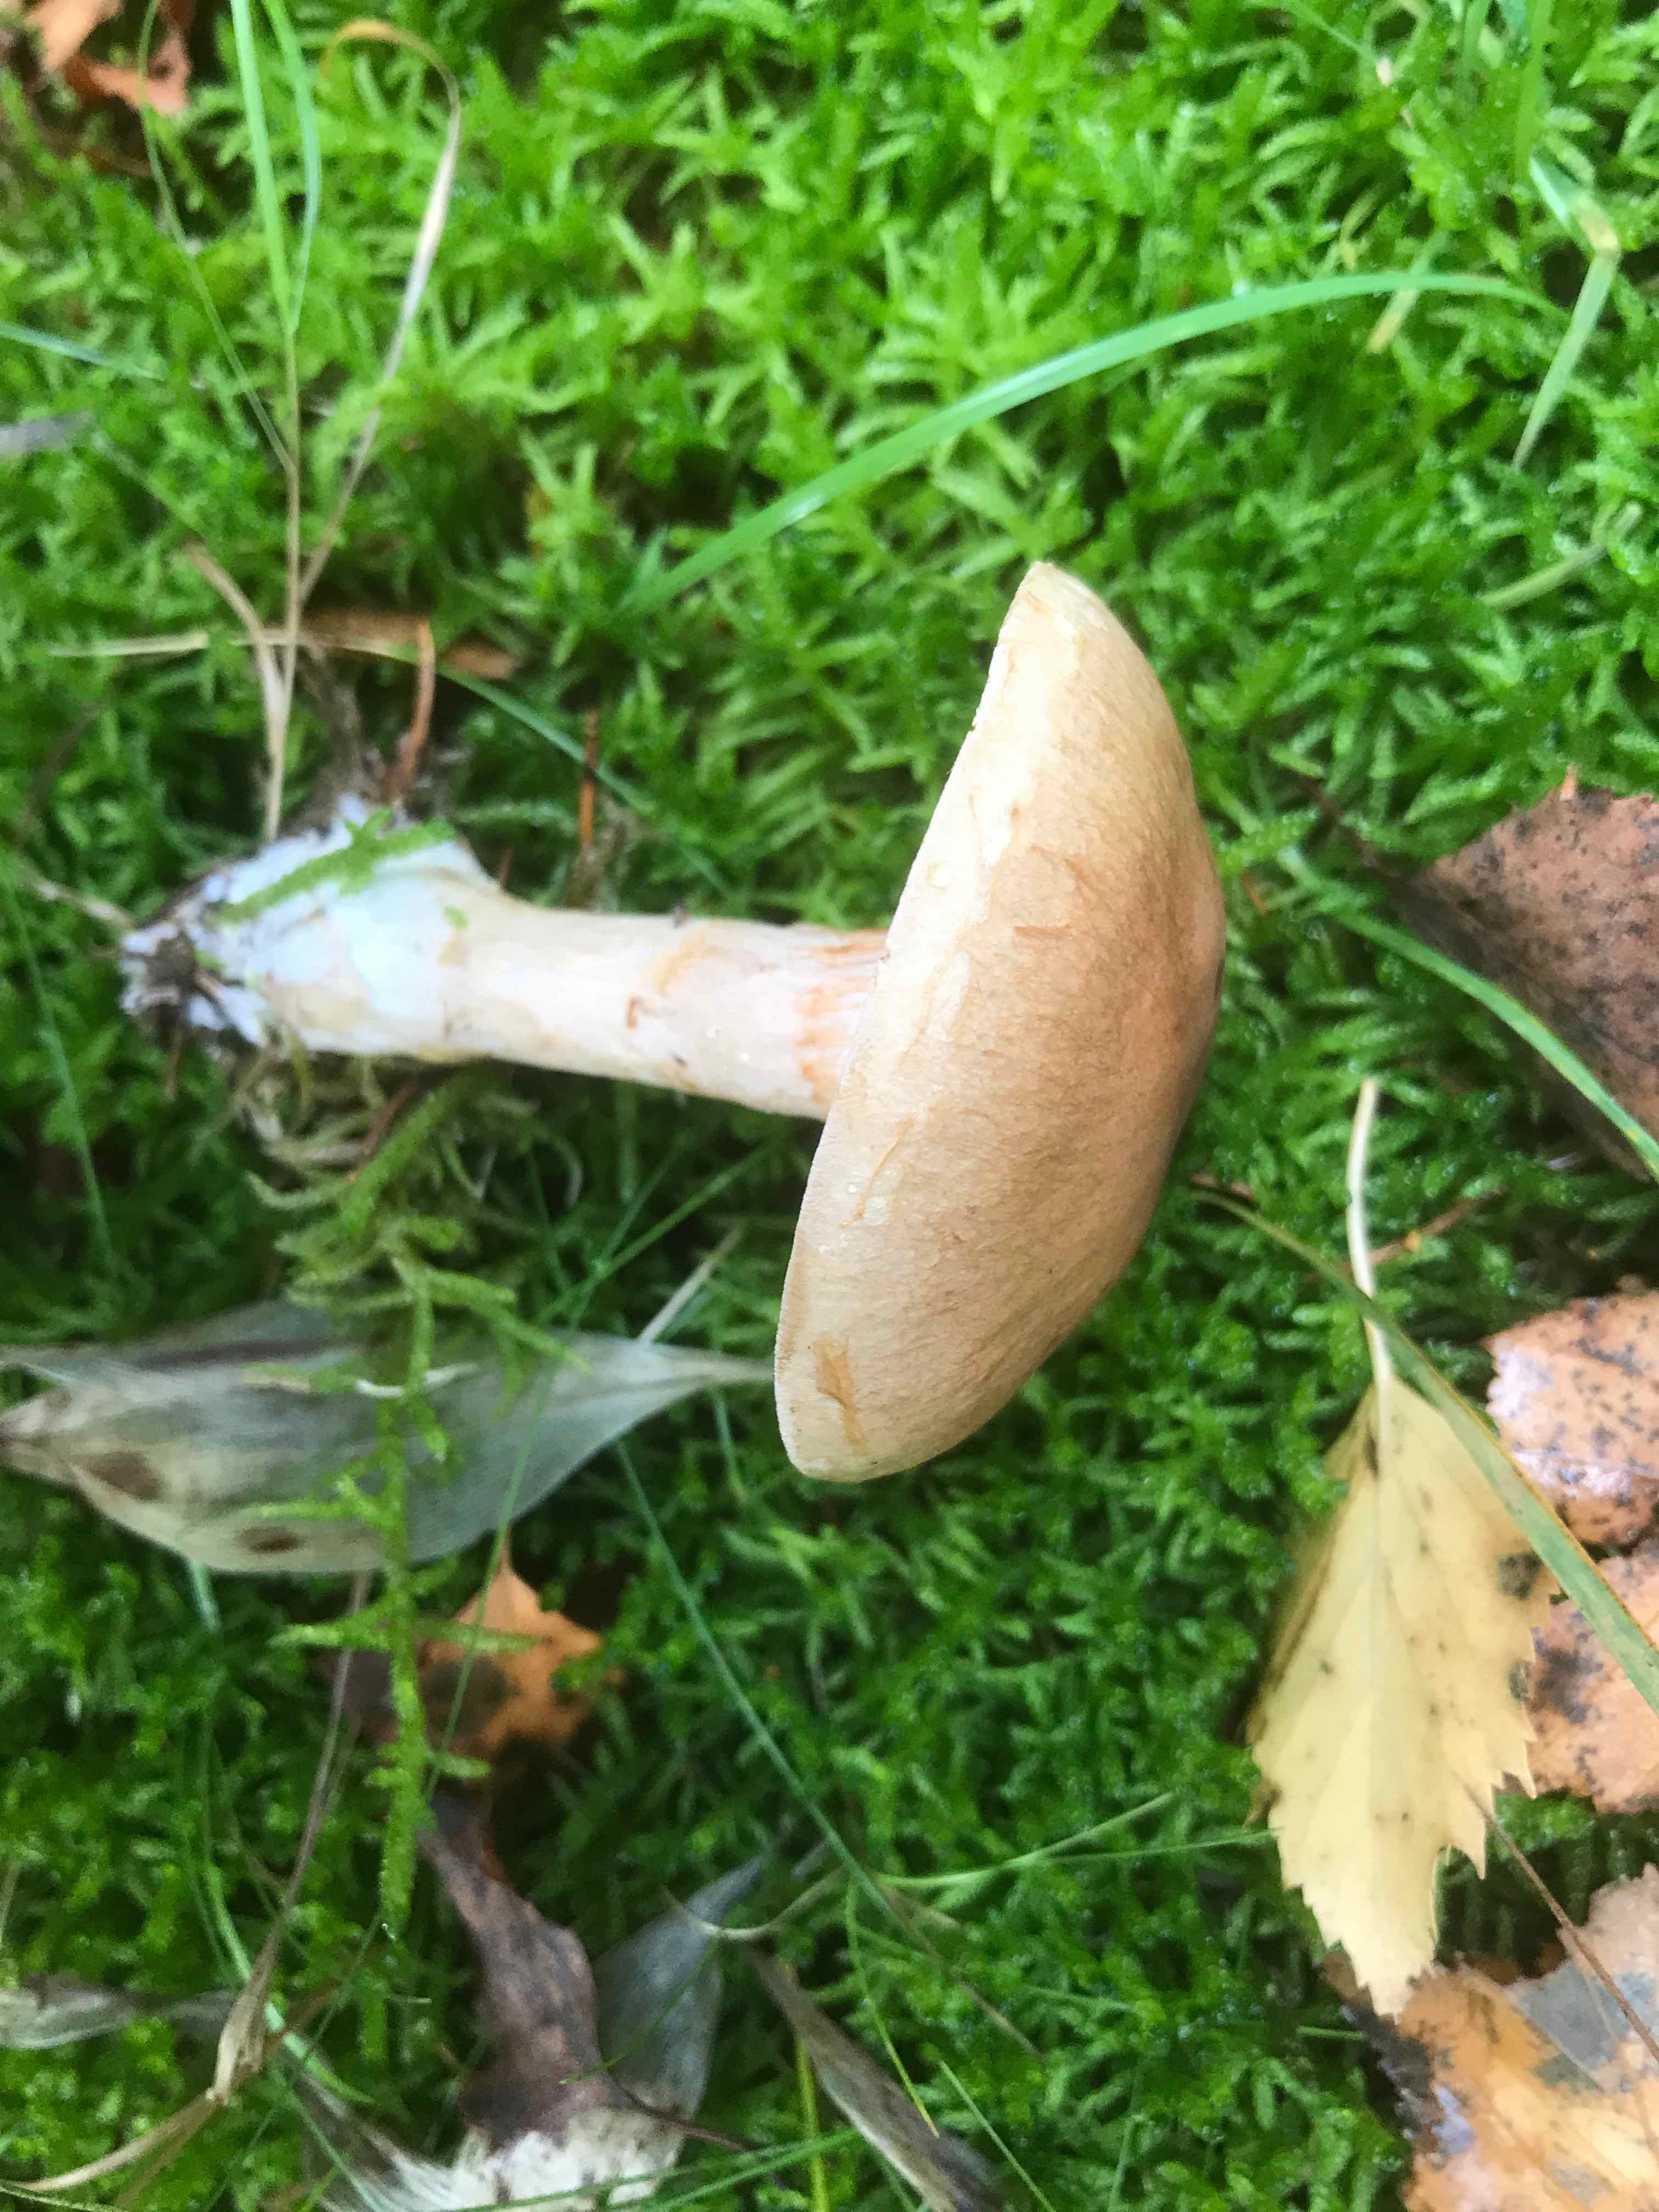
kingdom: Fungi
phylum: Basidiomycota
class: Agaricomycetes
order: Agaricales
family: Cortinariaceae
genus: Cortinarius
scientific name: Cortinarius
